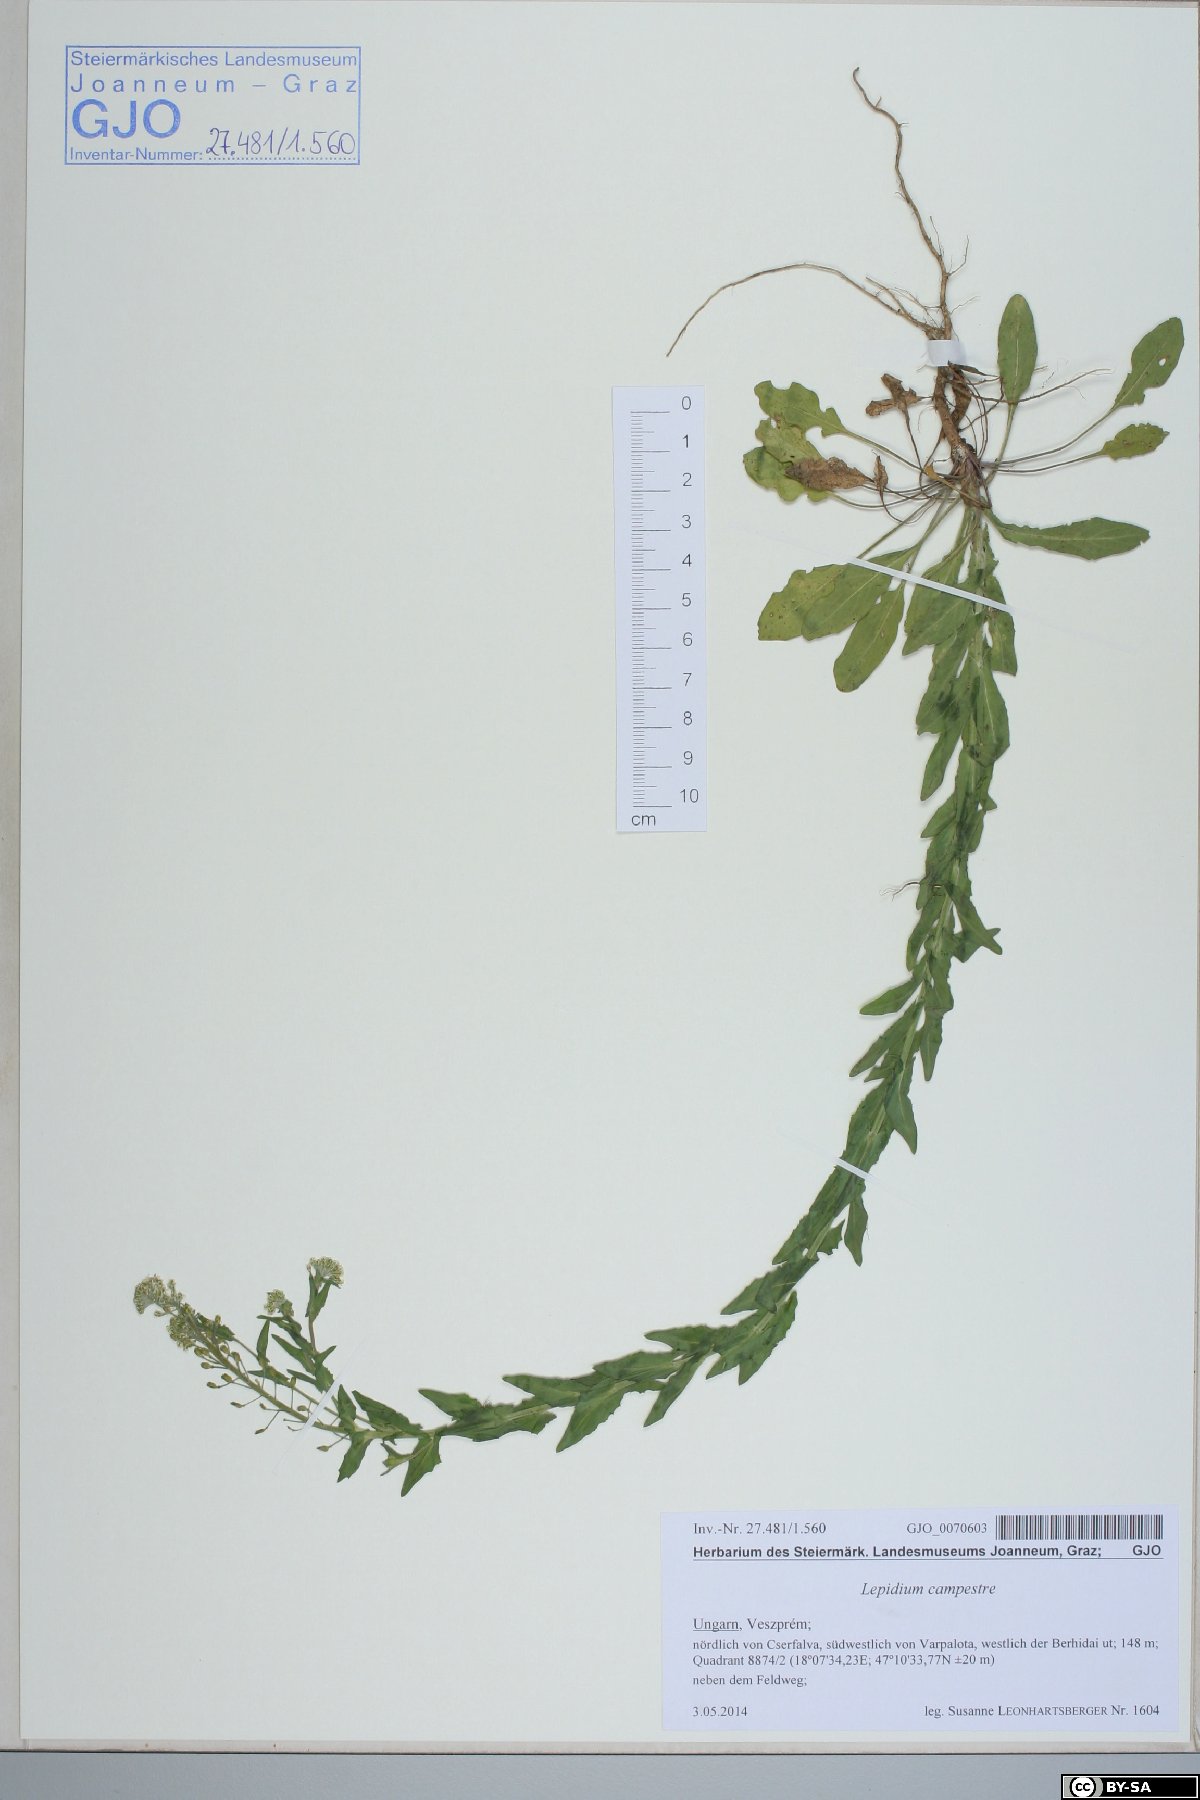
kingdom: Plantae
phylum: Tracheophyta
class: Magnoliopsida
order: Brassicales
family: Brassicaceae
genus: Lepidium
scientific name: Lepidium campestre
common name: Field pepperwort
